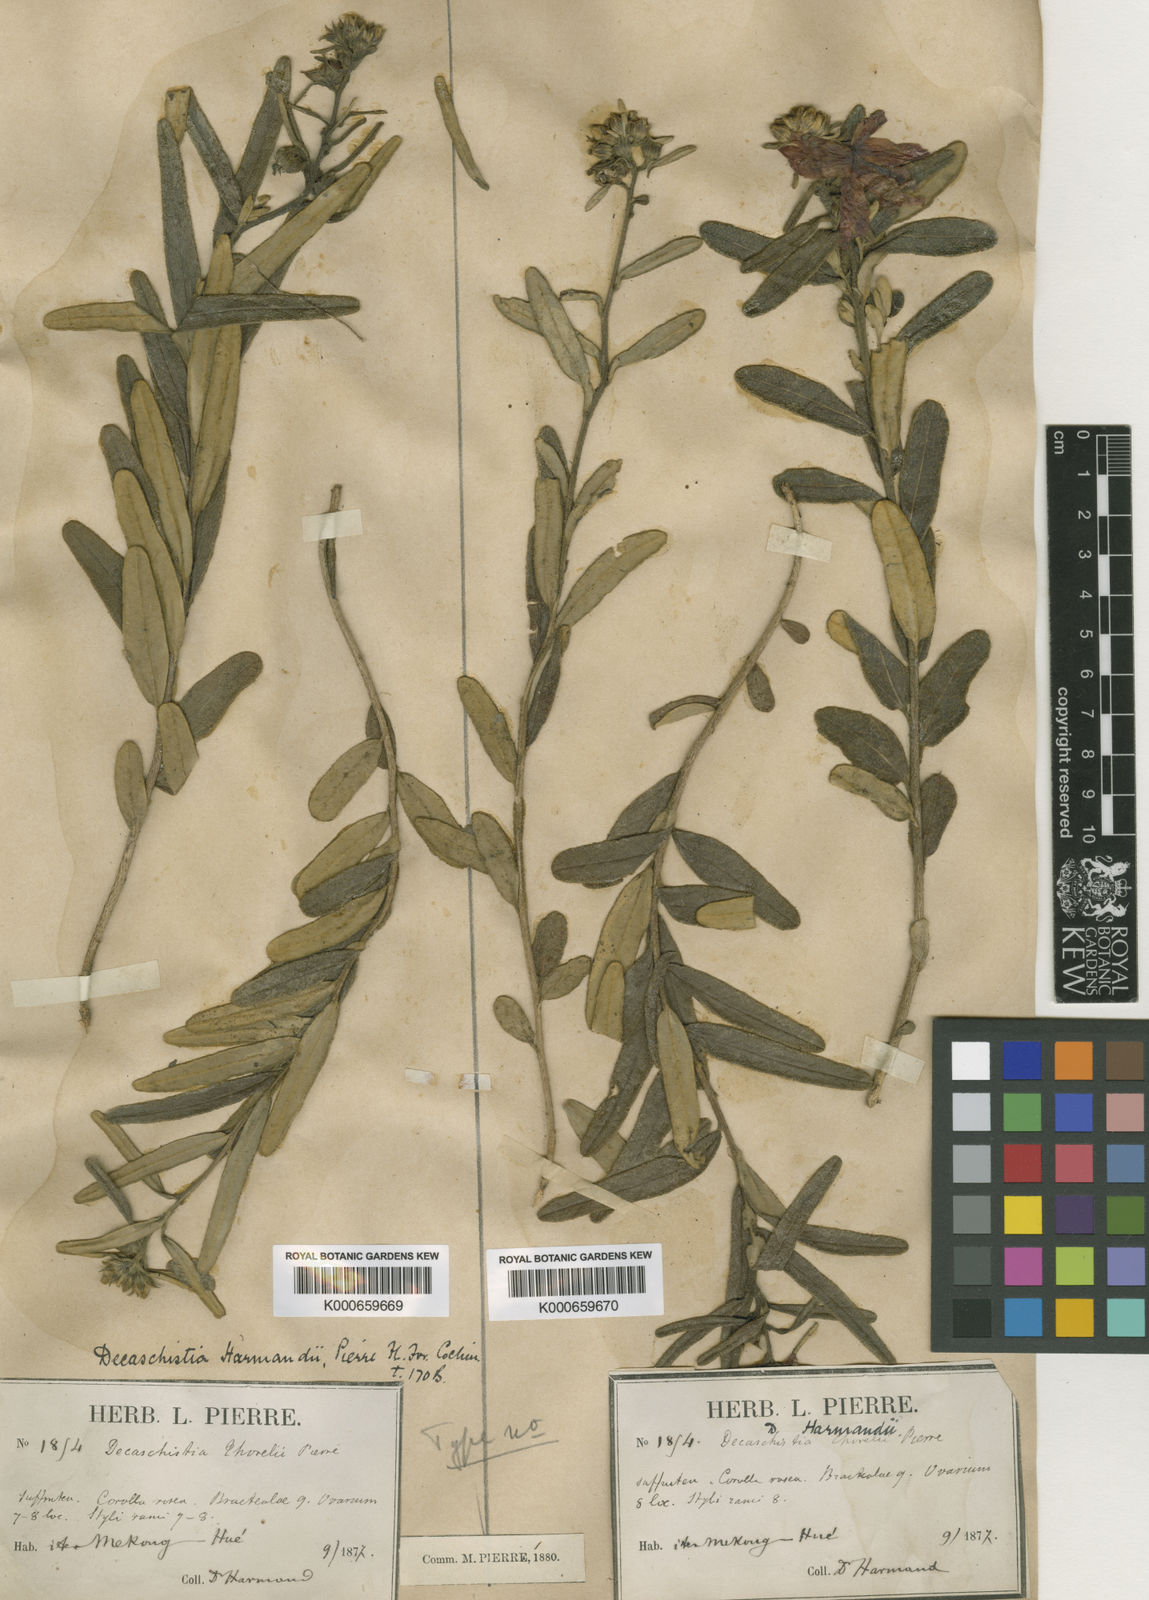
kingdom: Plantae
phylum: Tracheophyta
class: Magnoliopsida
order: Malvales
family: Malvaceae
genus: Decaschistia
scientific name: Decaschistia harmandii
